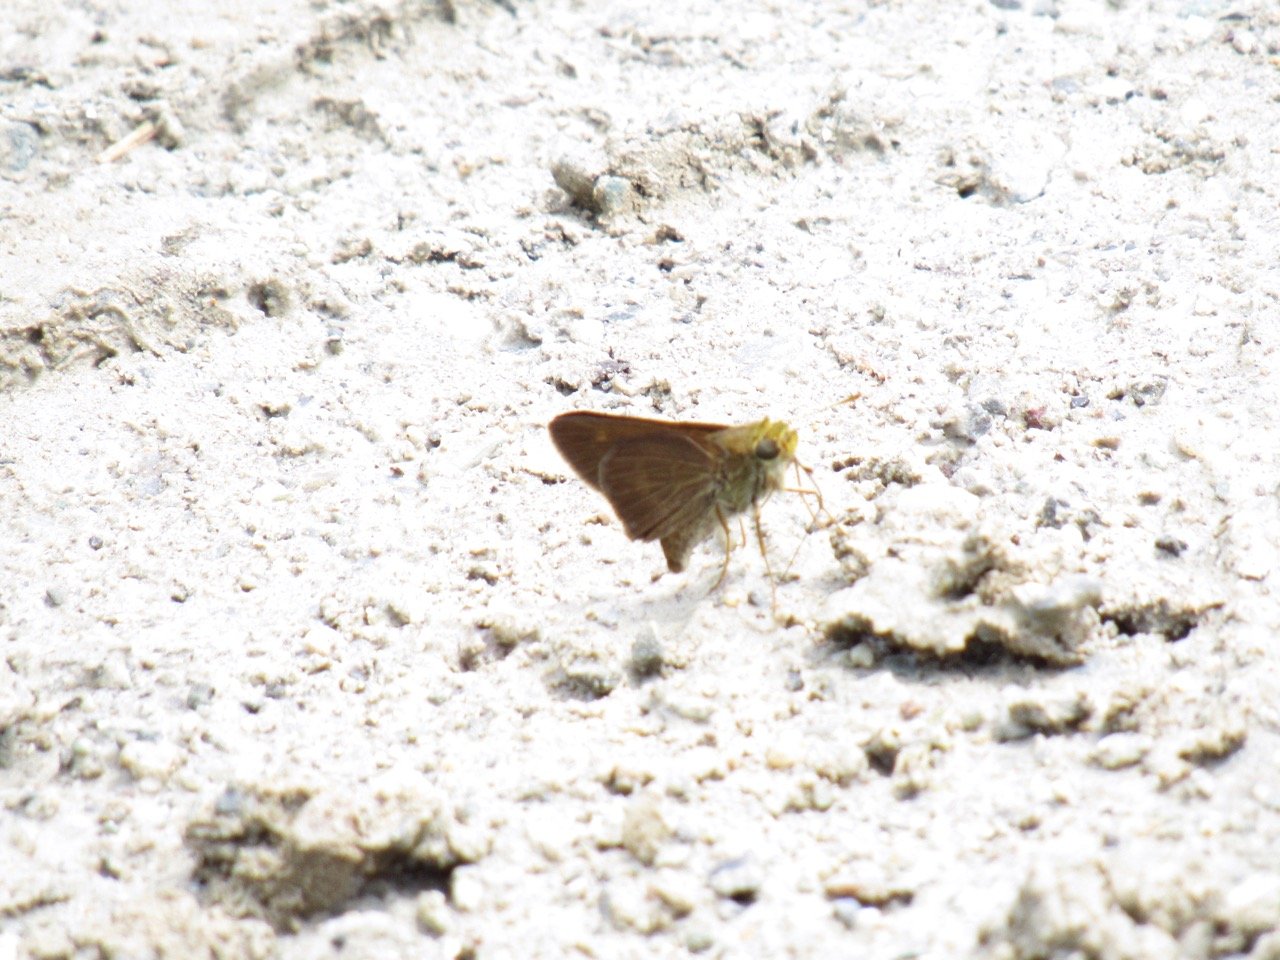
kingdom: Animalia
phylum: Arthropoda
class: Insecta
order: Lepidoptera
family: Hesperiidae
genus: Polites
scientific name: Polites egeremet
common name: Northern Broken-Dash
